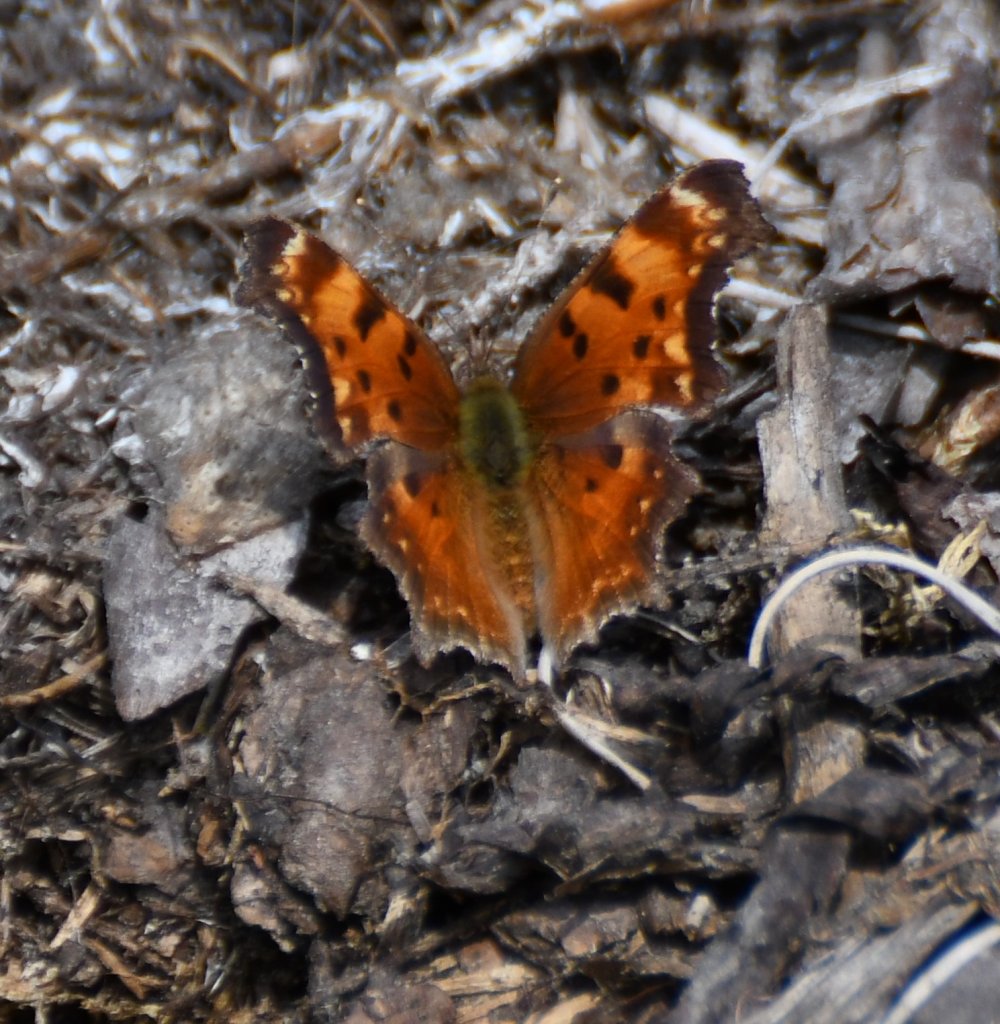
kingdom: Animalia
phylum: Arthropoda
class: Insecta
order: Lepidoptera
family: Nymphalidae
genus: Polygonia
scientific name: Polygonia progne
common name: Gray Comma
